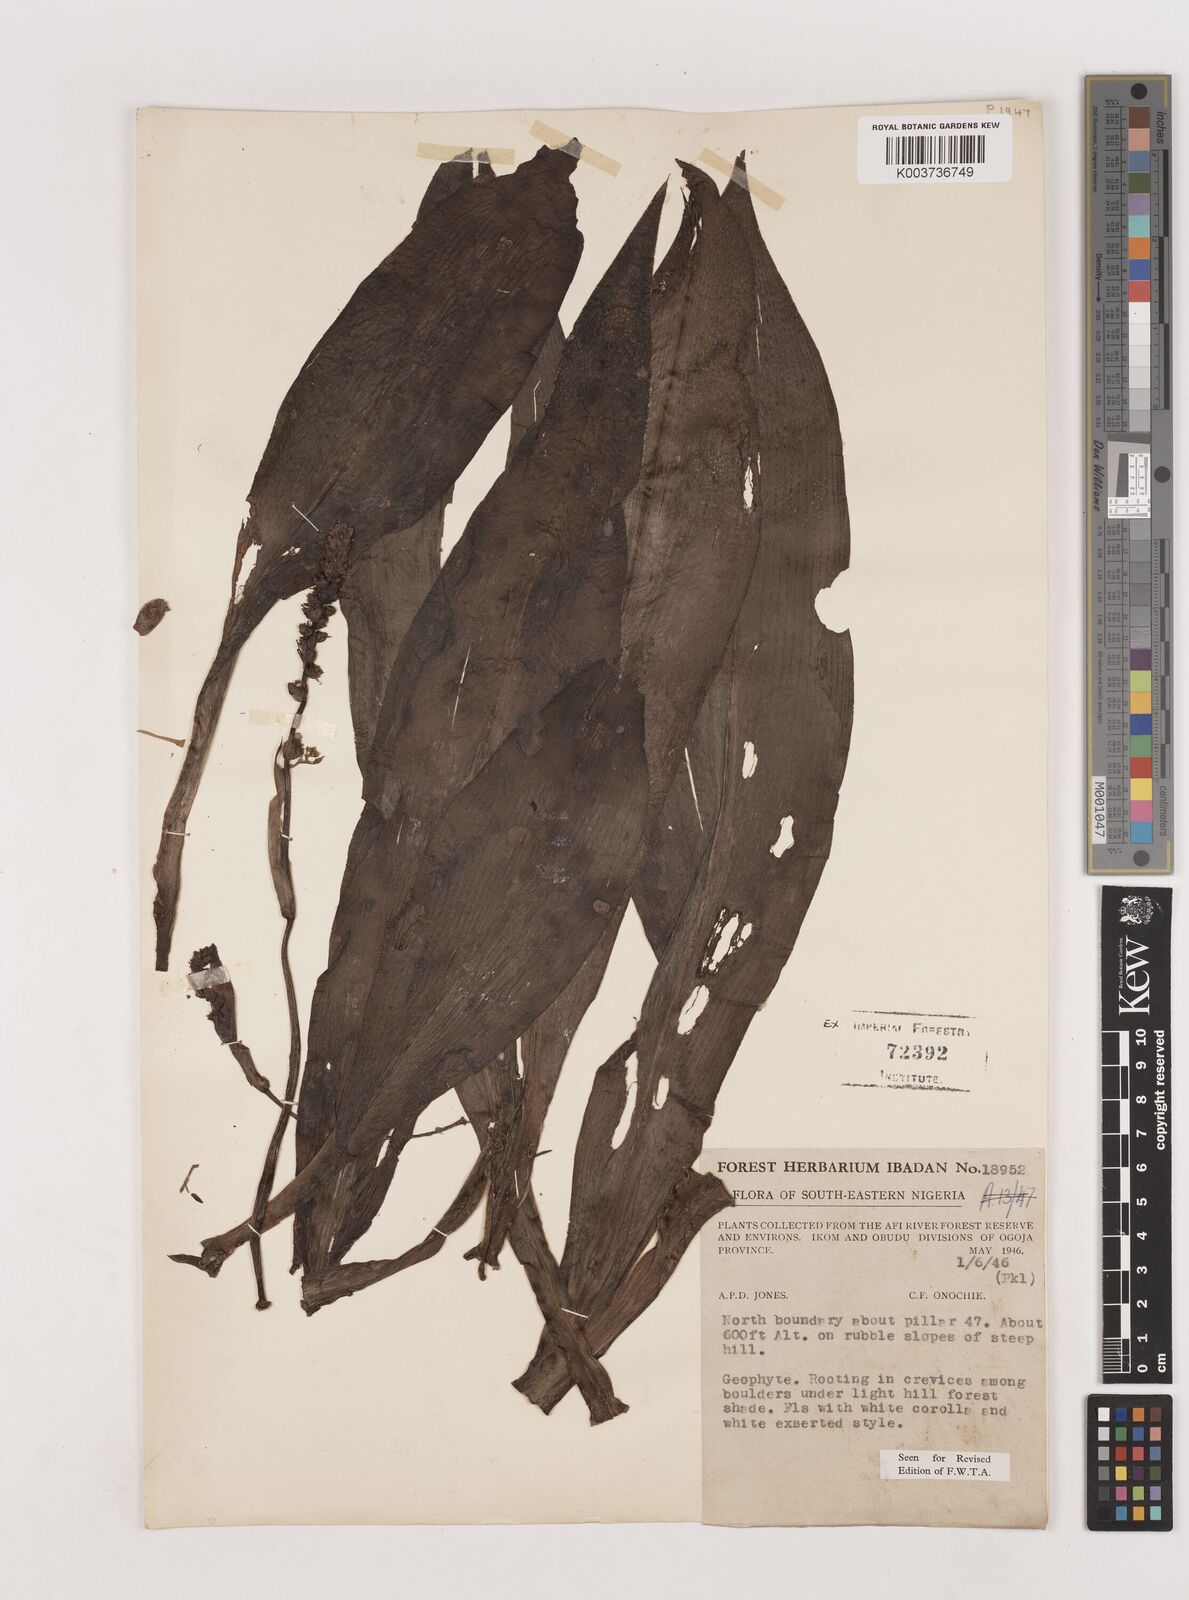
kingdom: Plantae
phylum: Tracheophyta
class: Liliopsida
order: Asparagales
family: Asparagaceae
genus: Chlorophytum
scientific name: Chlorophytum macrophyllum
